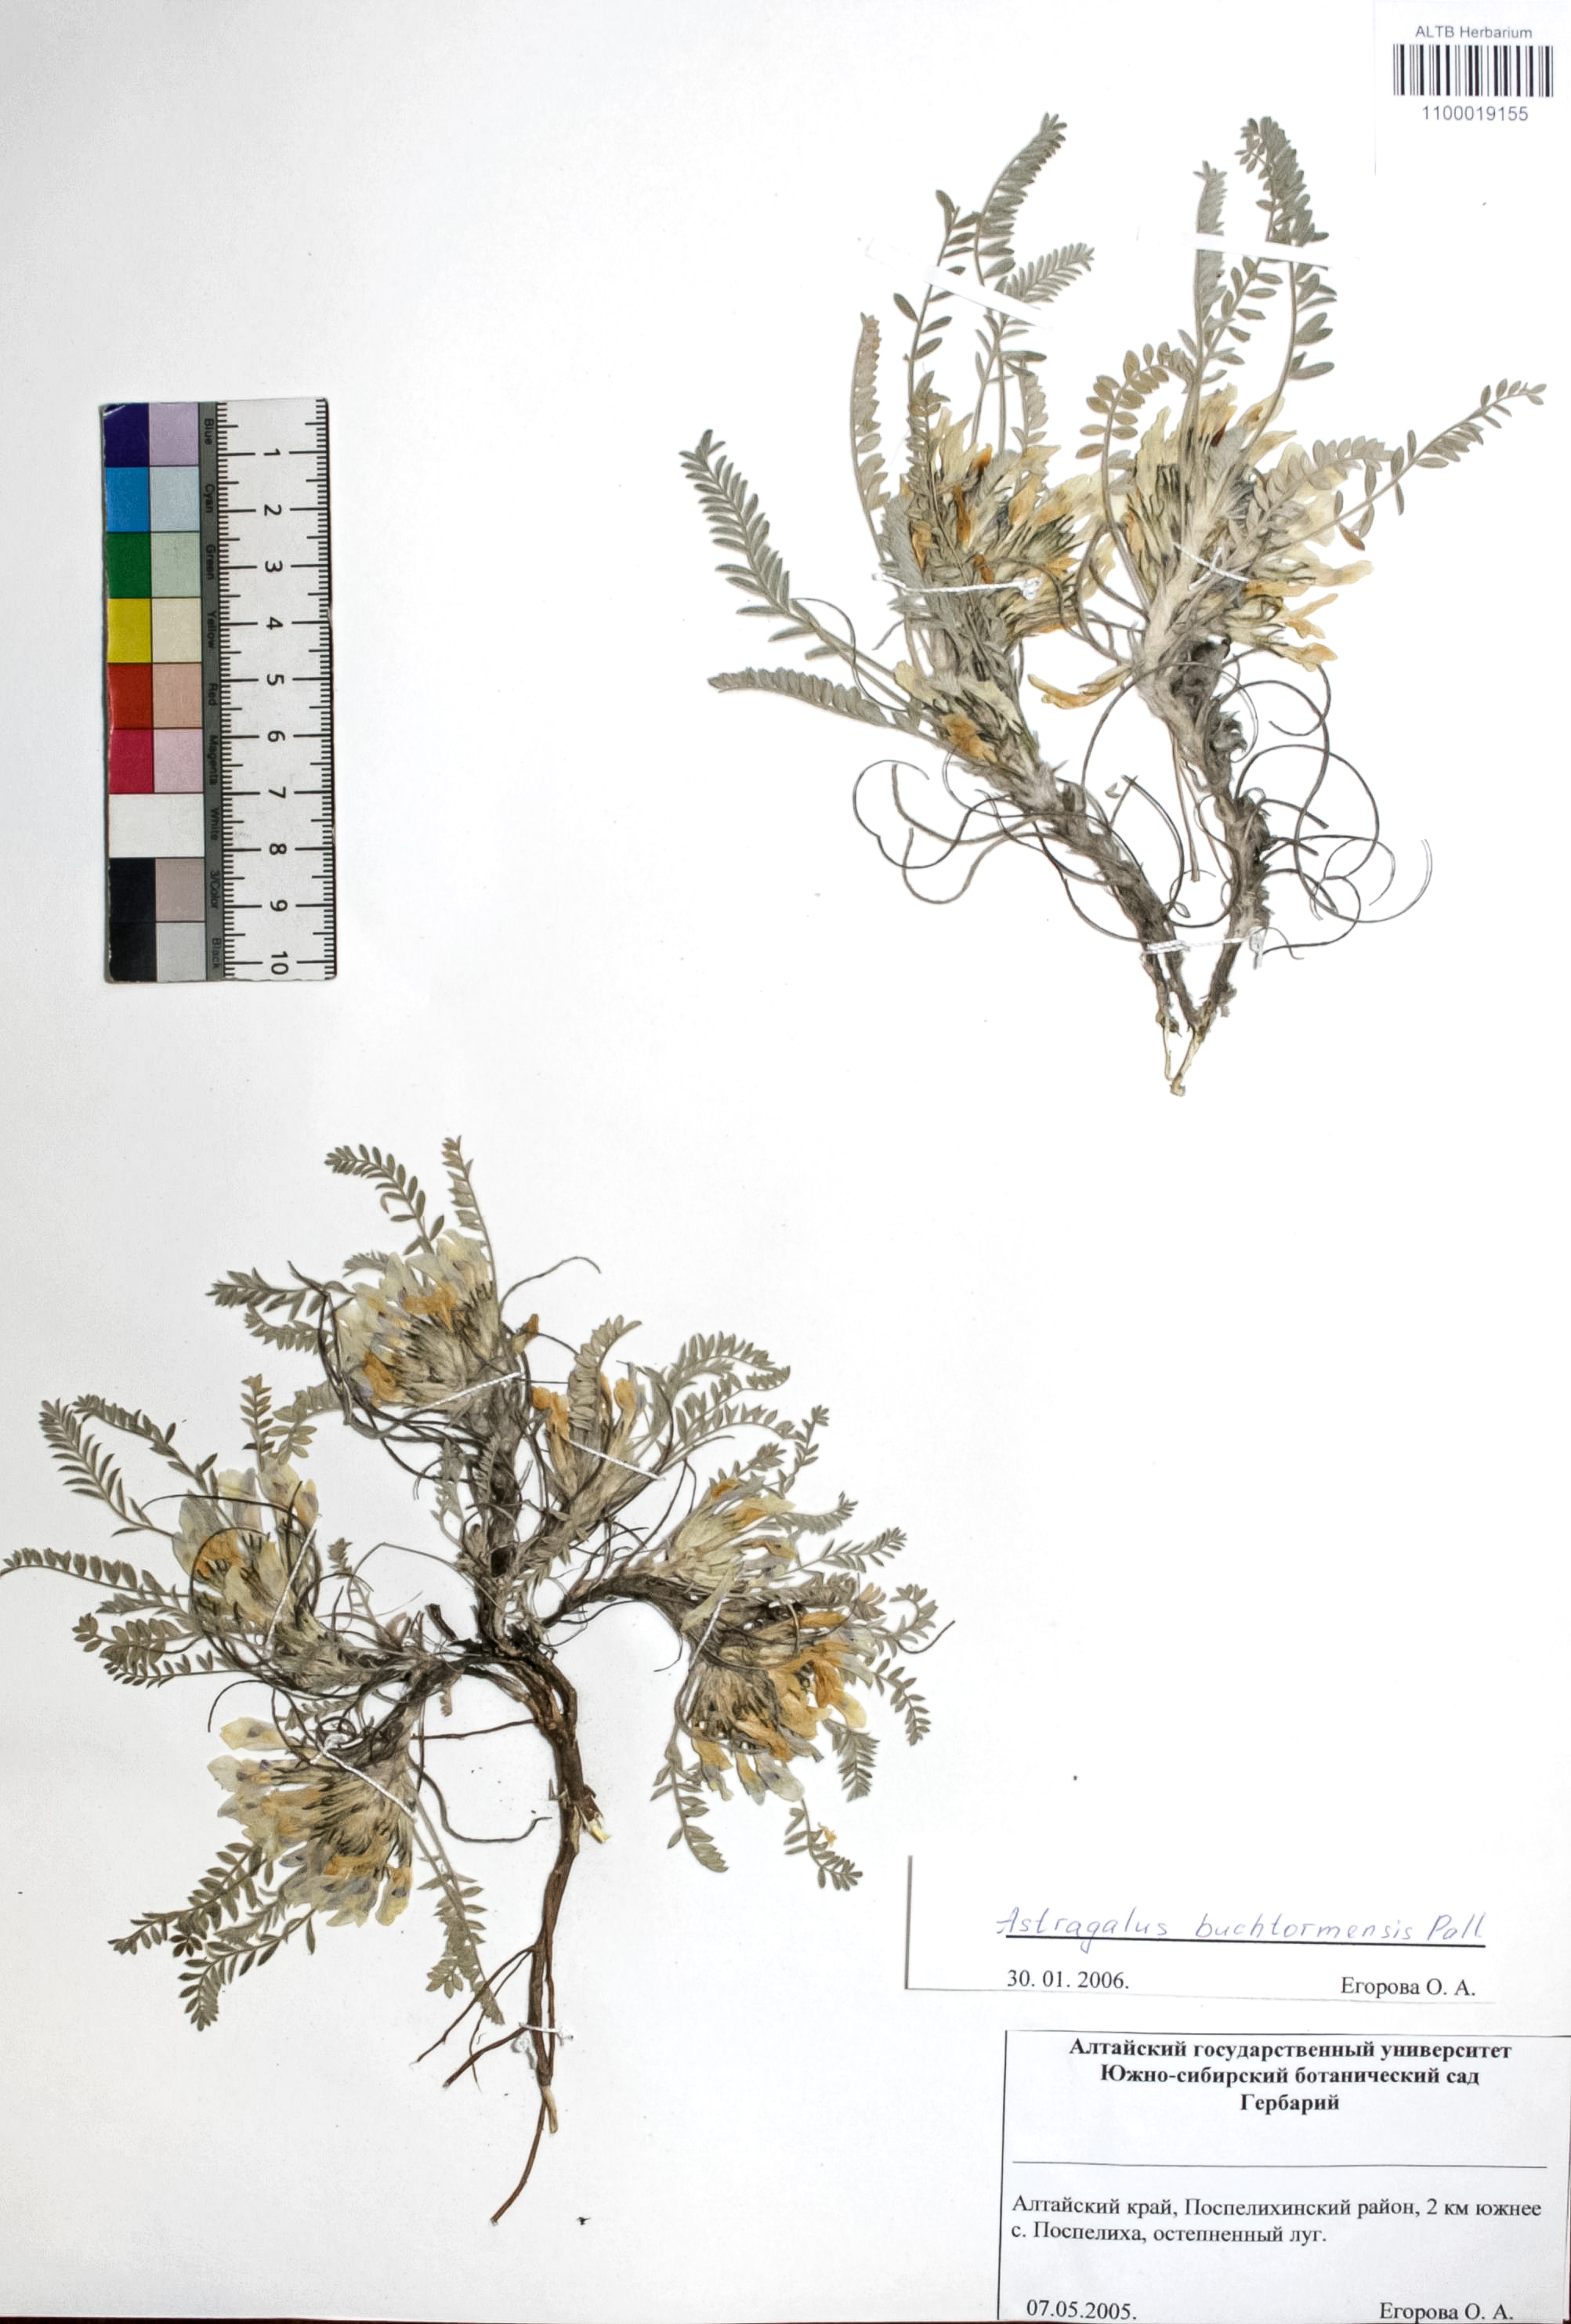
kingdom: Plantae
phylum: Tracheophyta
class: Magnoliopsida
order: Fabales
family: Fabaceae
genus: Astragalus
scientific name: Astragalus buchtormensis
